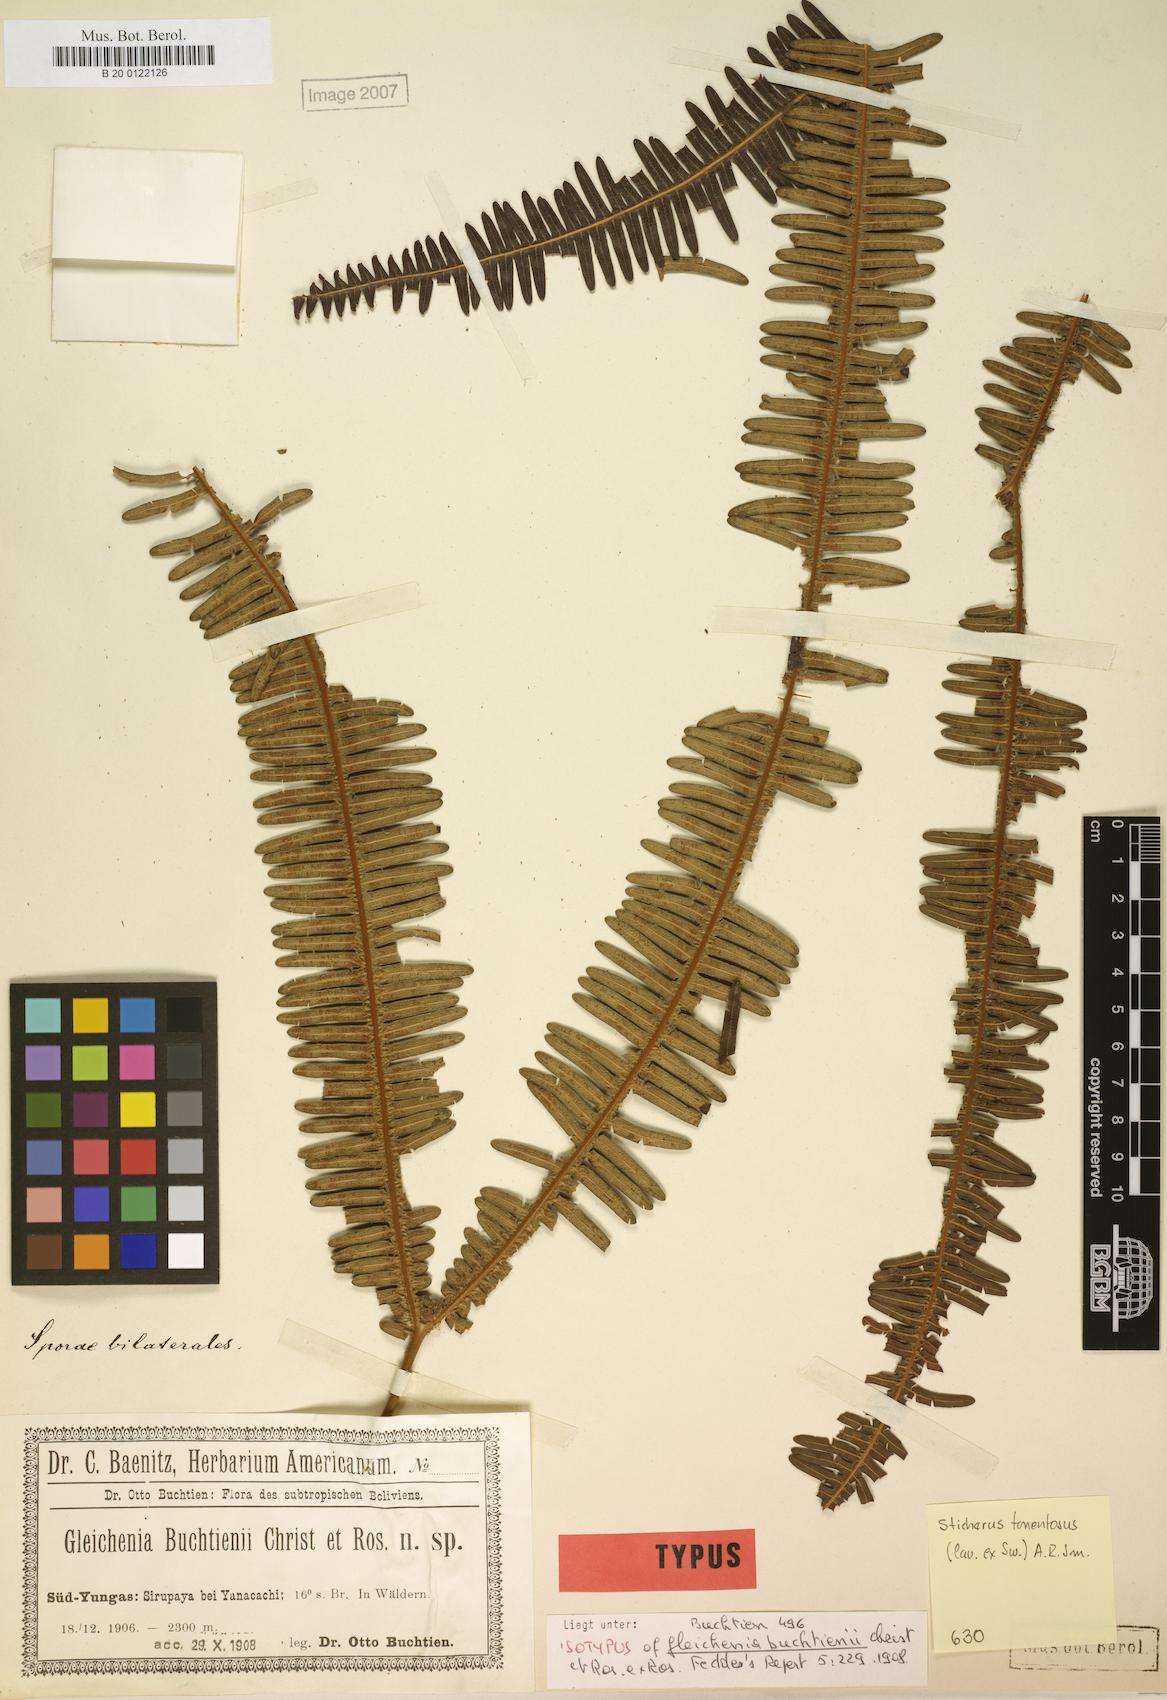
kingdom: Plantae
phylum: Tracheophyta
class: Polypodiopsida
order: Gleicheniales
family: Gleicheniaceae
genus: Sticherus
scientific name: Sticherus squamosus
